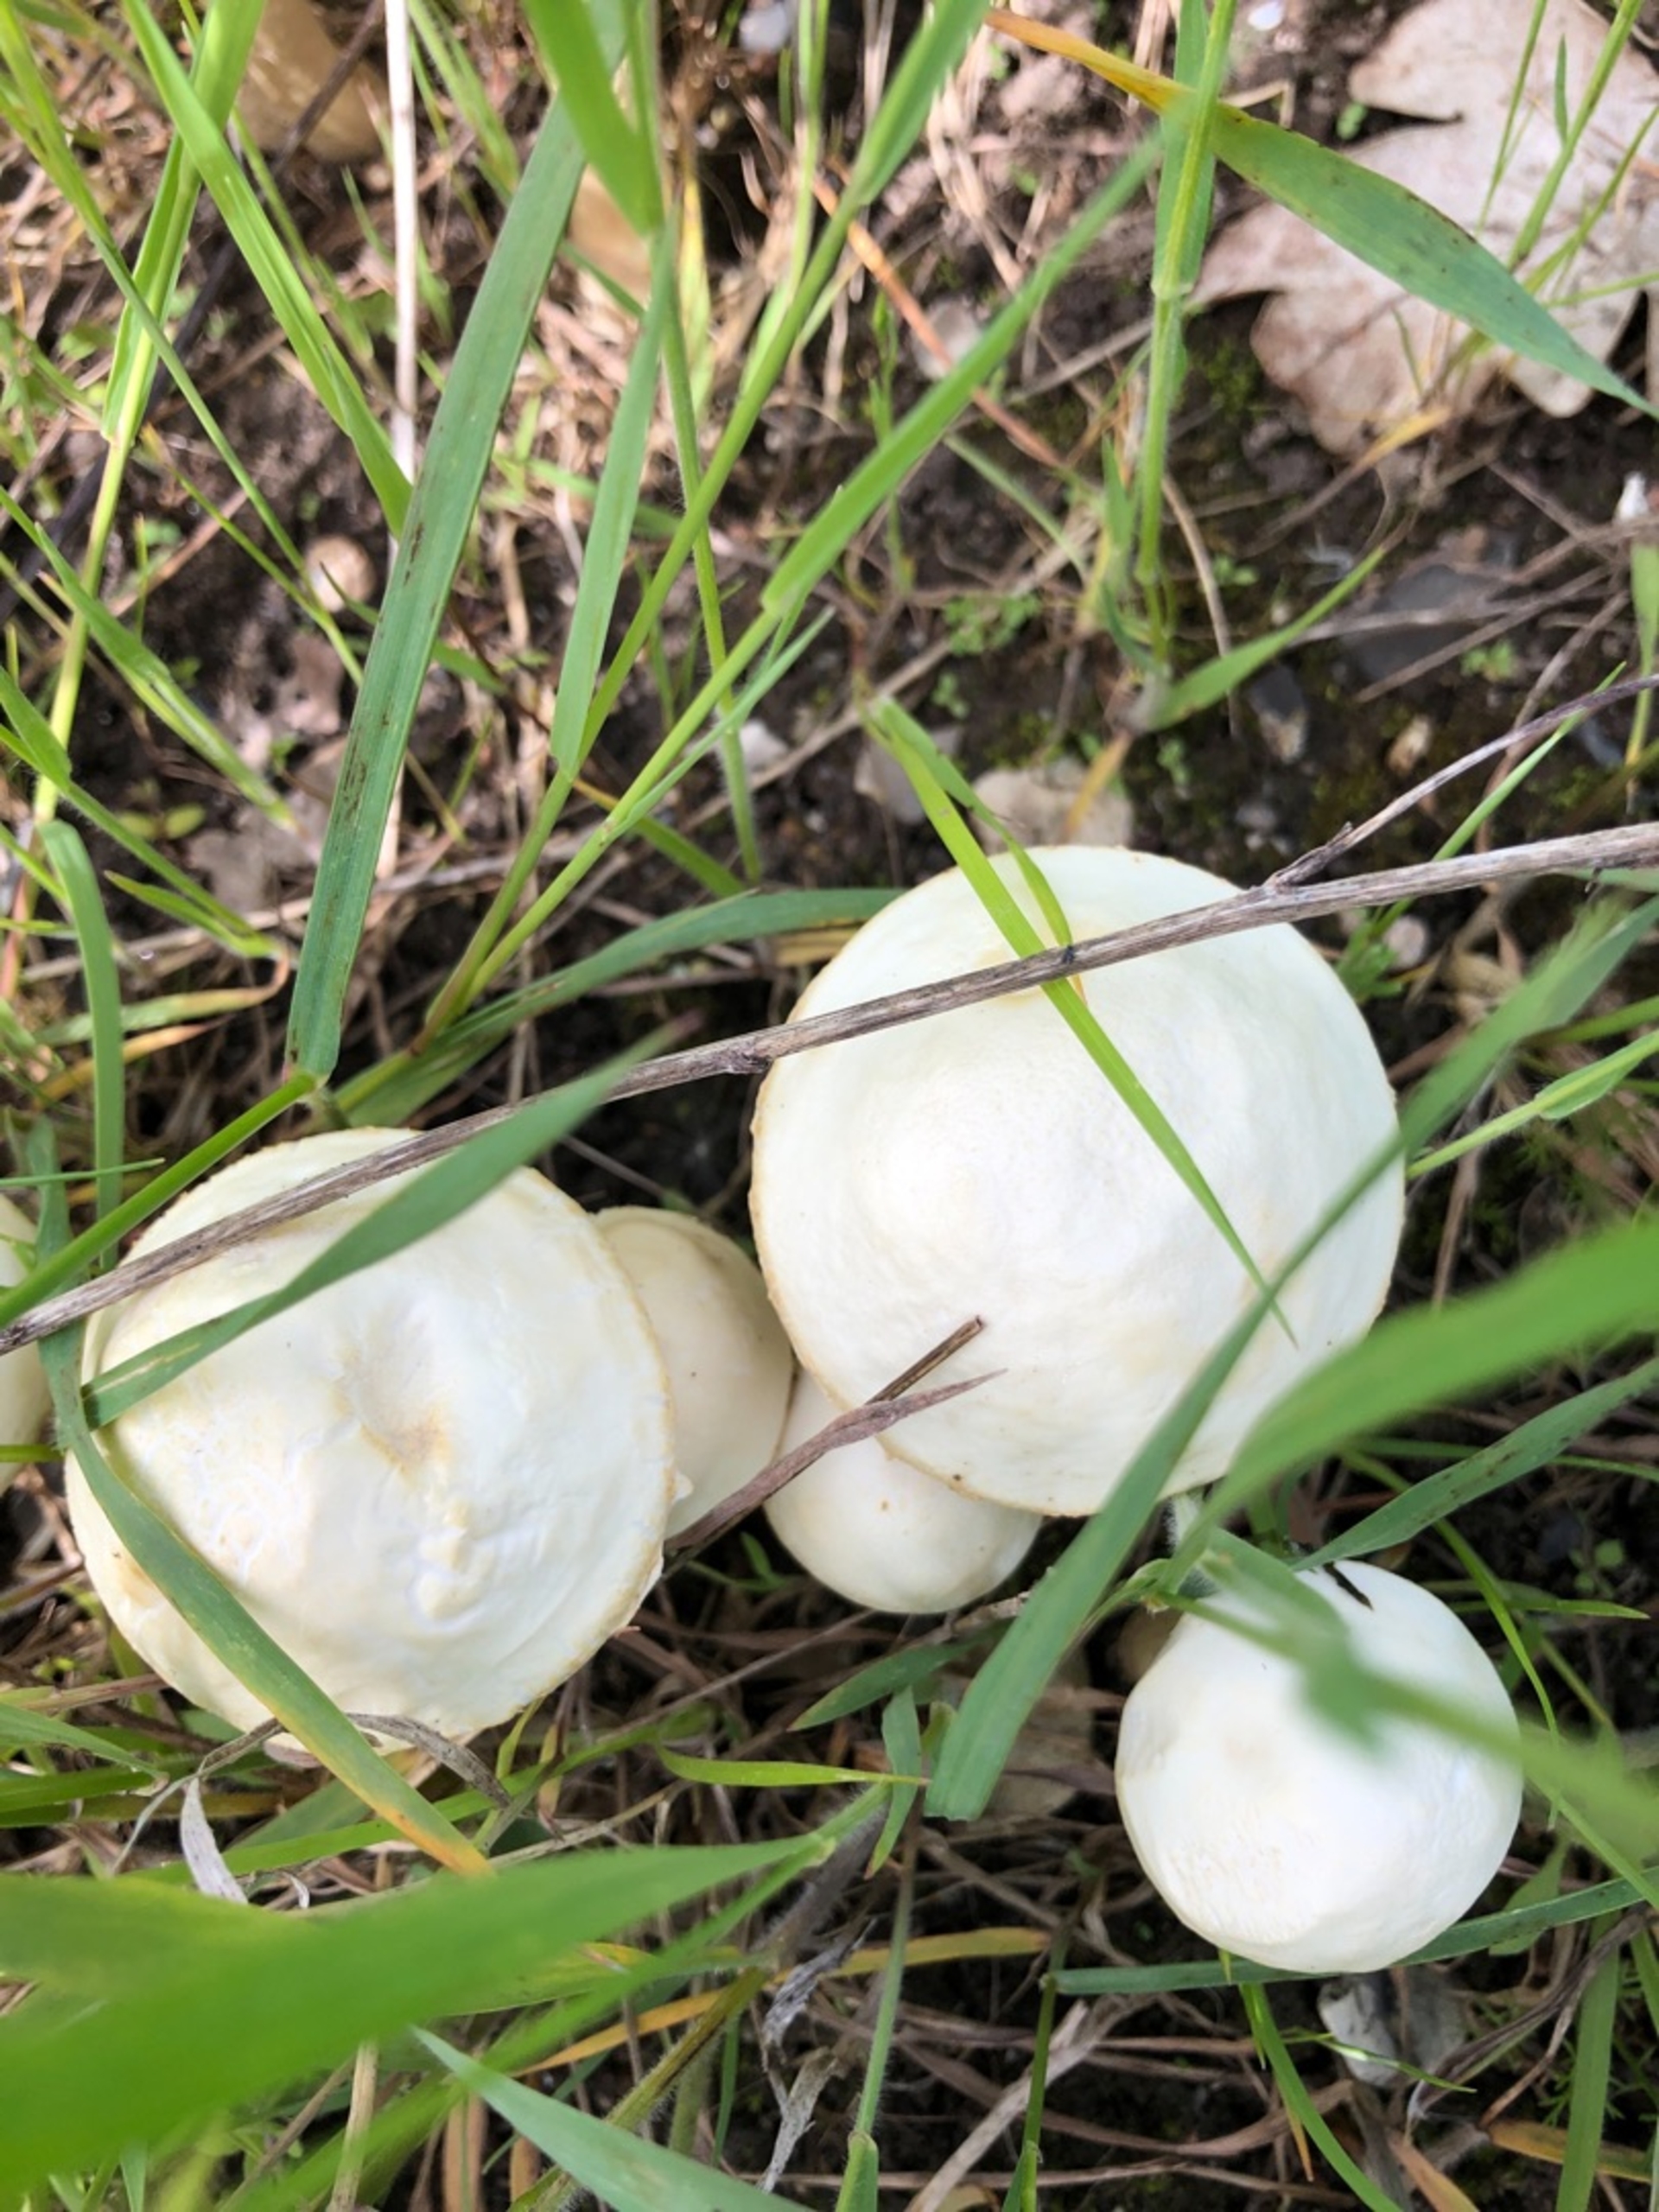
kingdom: Fungi
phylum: Basidiomycota
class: Agaricomycetes
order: Agaricales
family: Strophariaceae
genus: Agrocybe
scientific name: Agrocybe
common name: Agerhat
